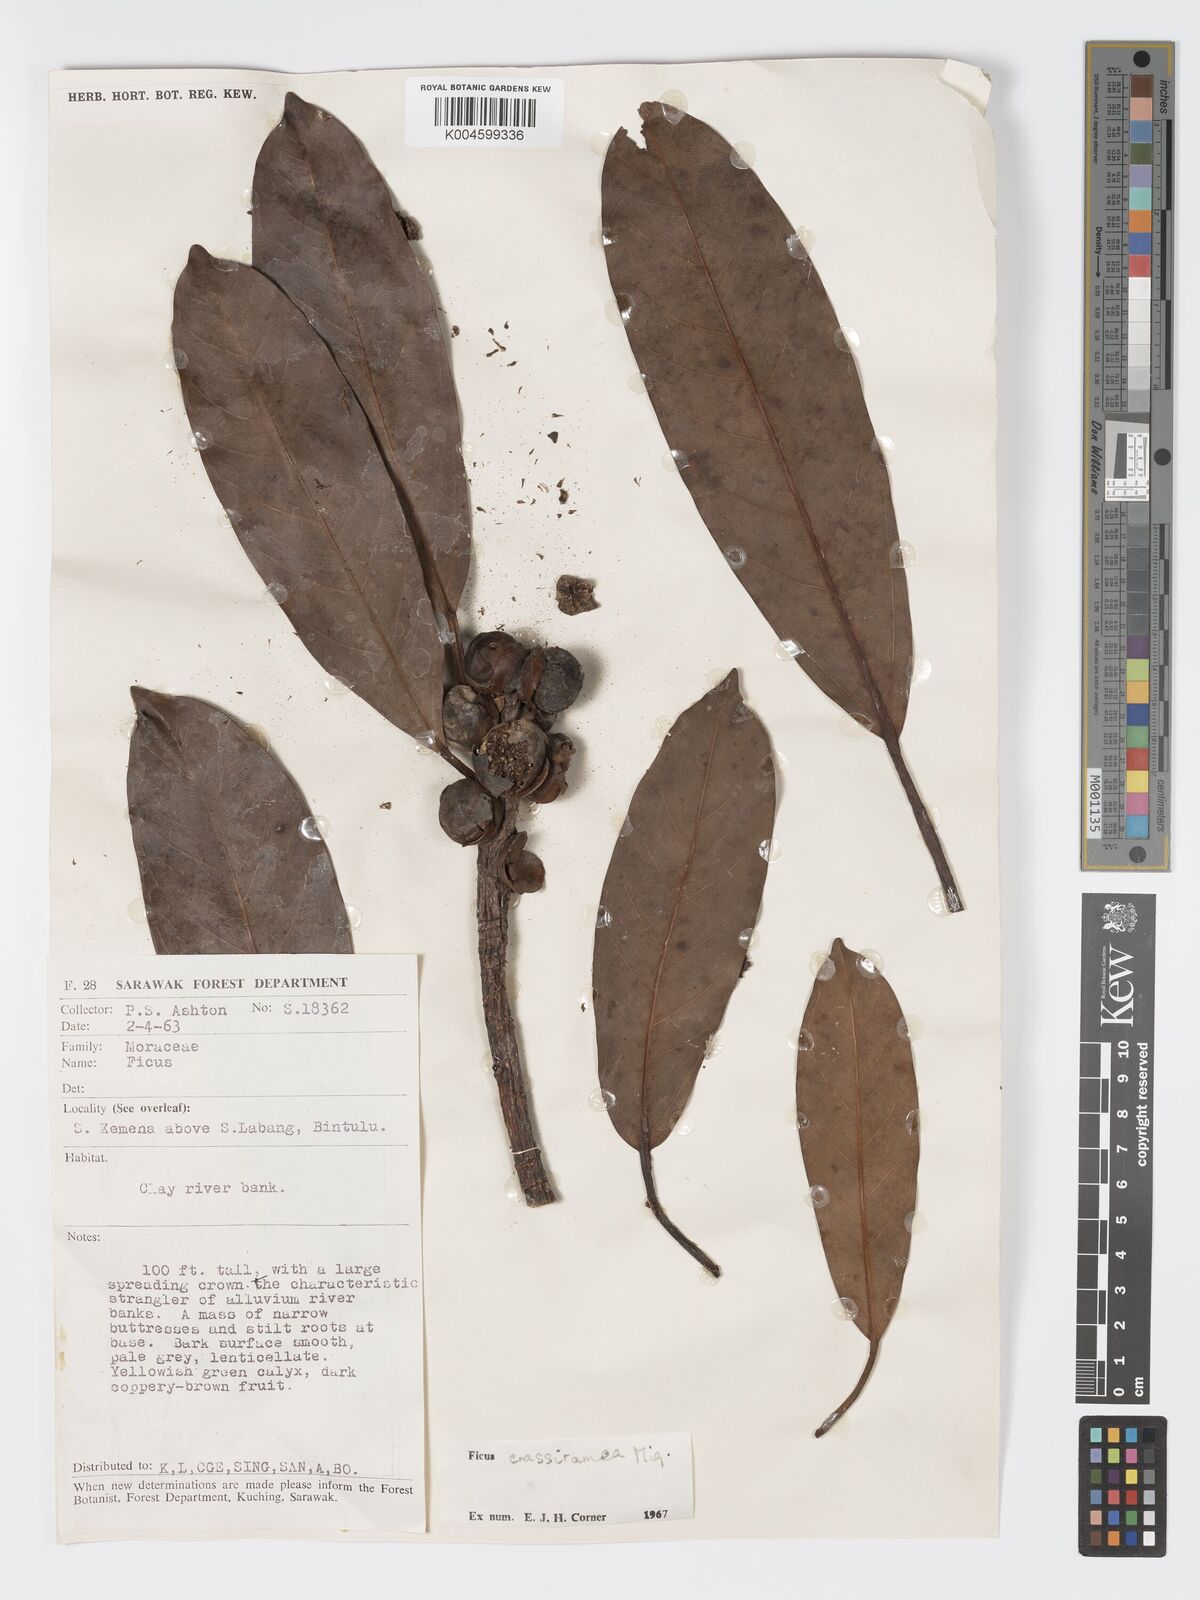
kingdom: Plantae
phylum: Tracheophyta
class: Magnoliopsida
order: Rosales
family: Moraceae
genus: Ficus
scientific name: Ficus crassiramea
